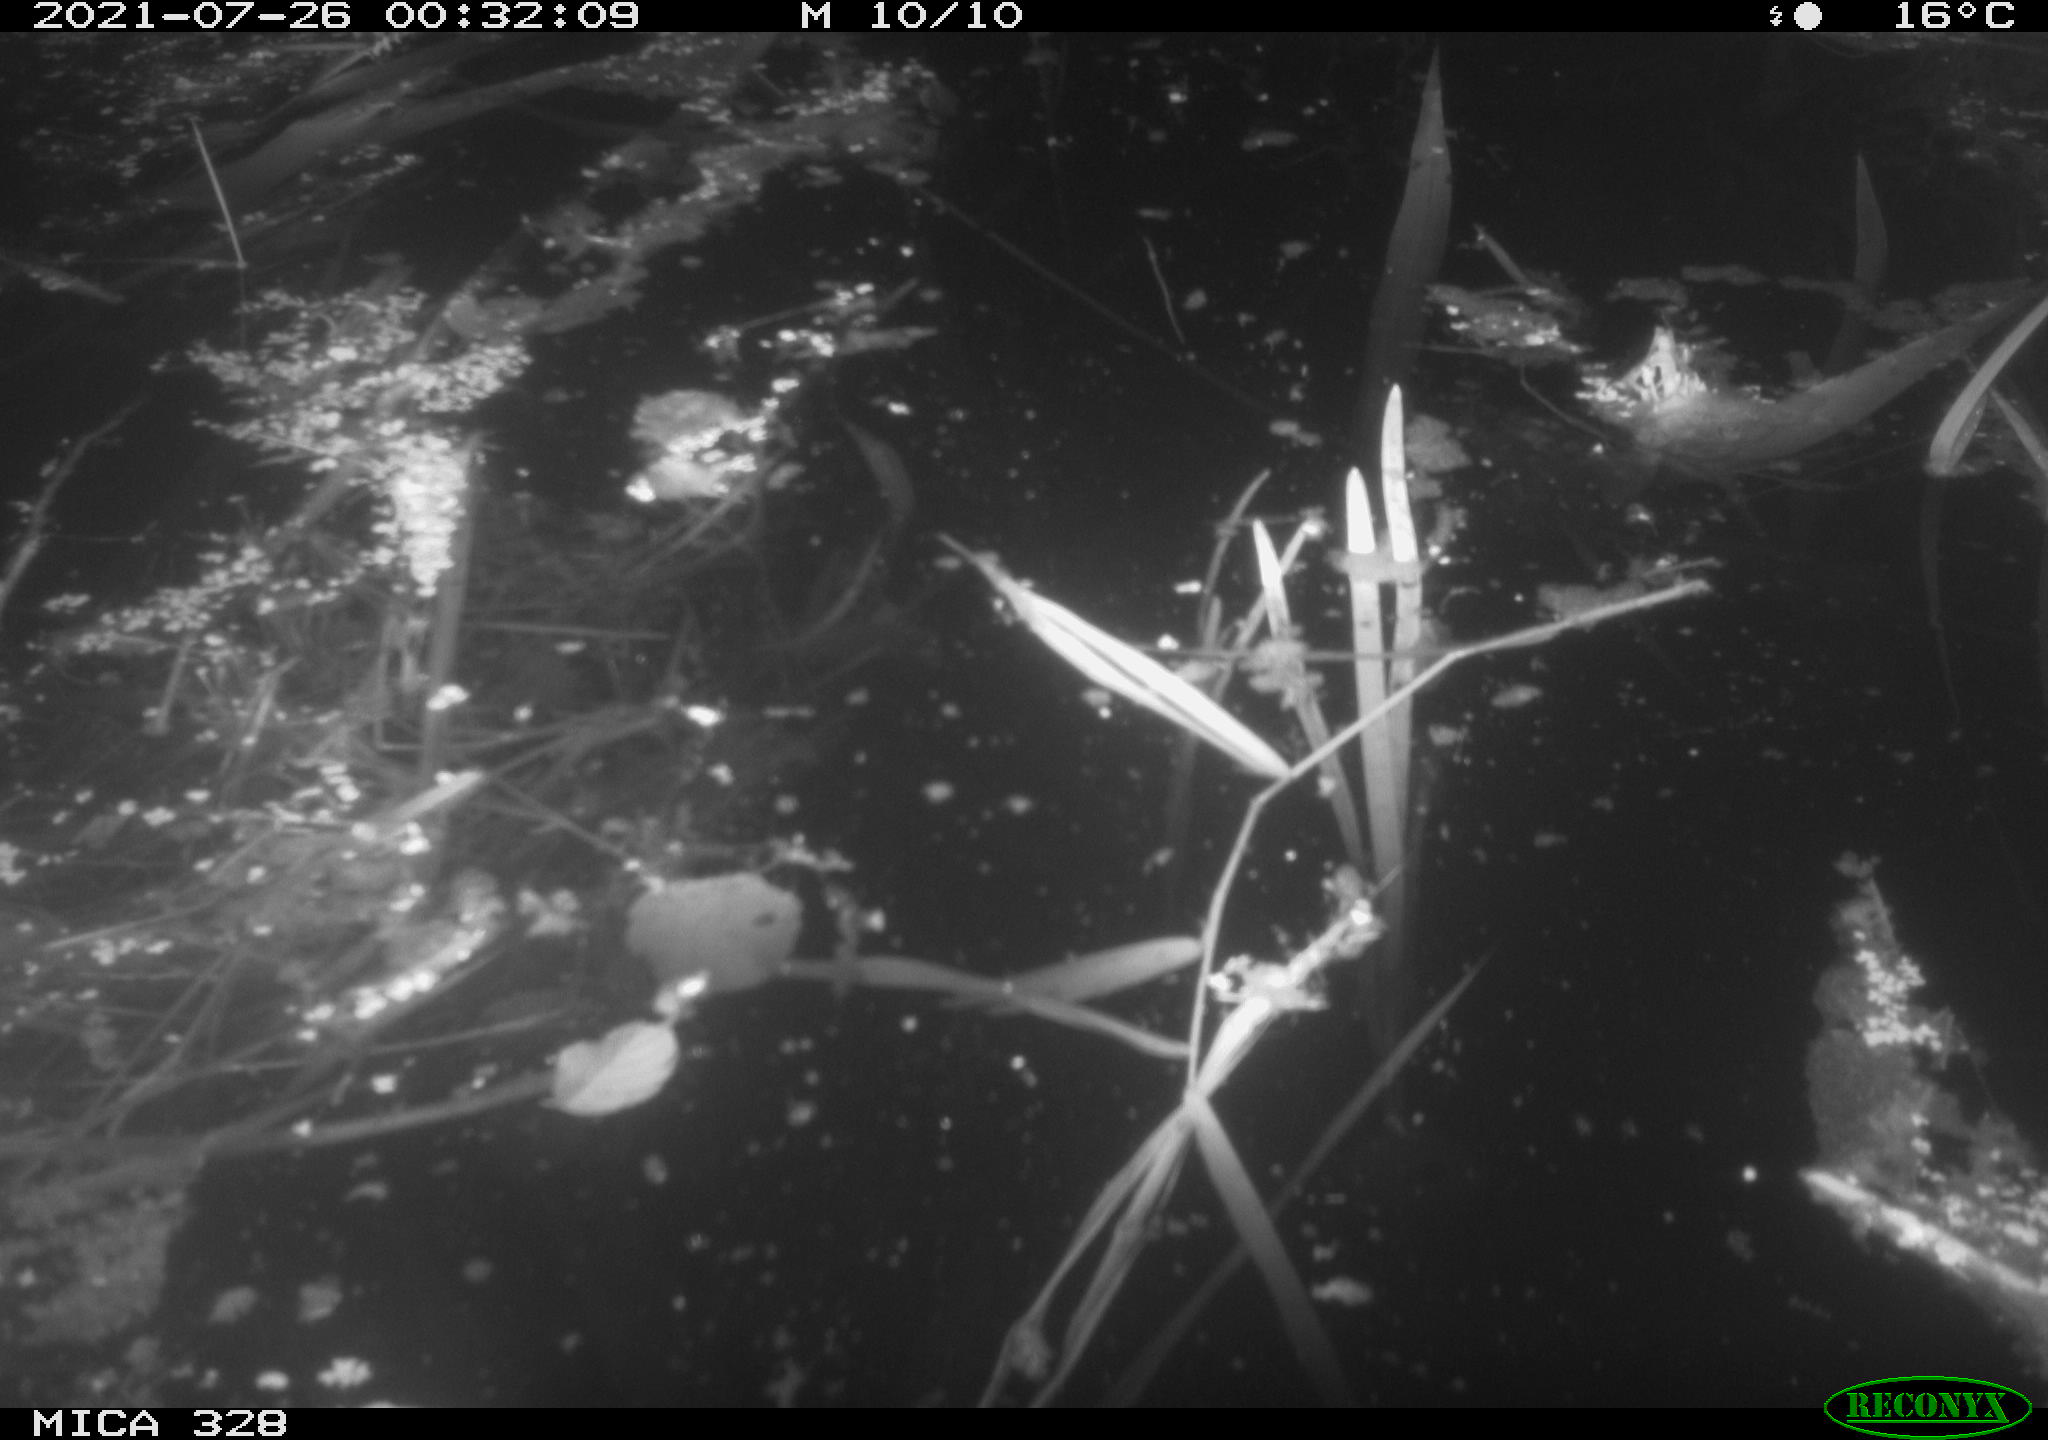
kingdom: Animalia
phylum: Chordata
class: Mammalia
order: Rodentia
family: Cricetidae
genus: Ondatra
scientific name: Ondatra zibethicus
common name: Muskrat
